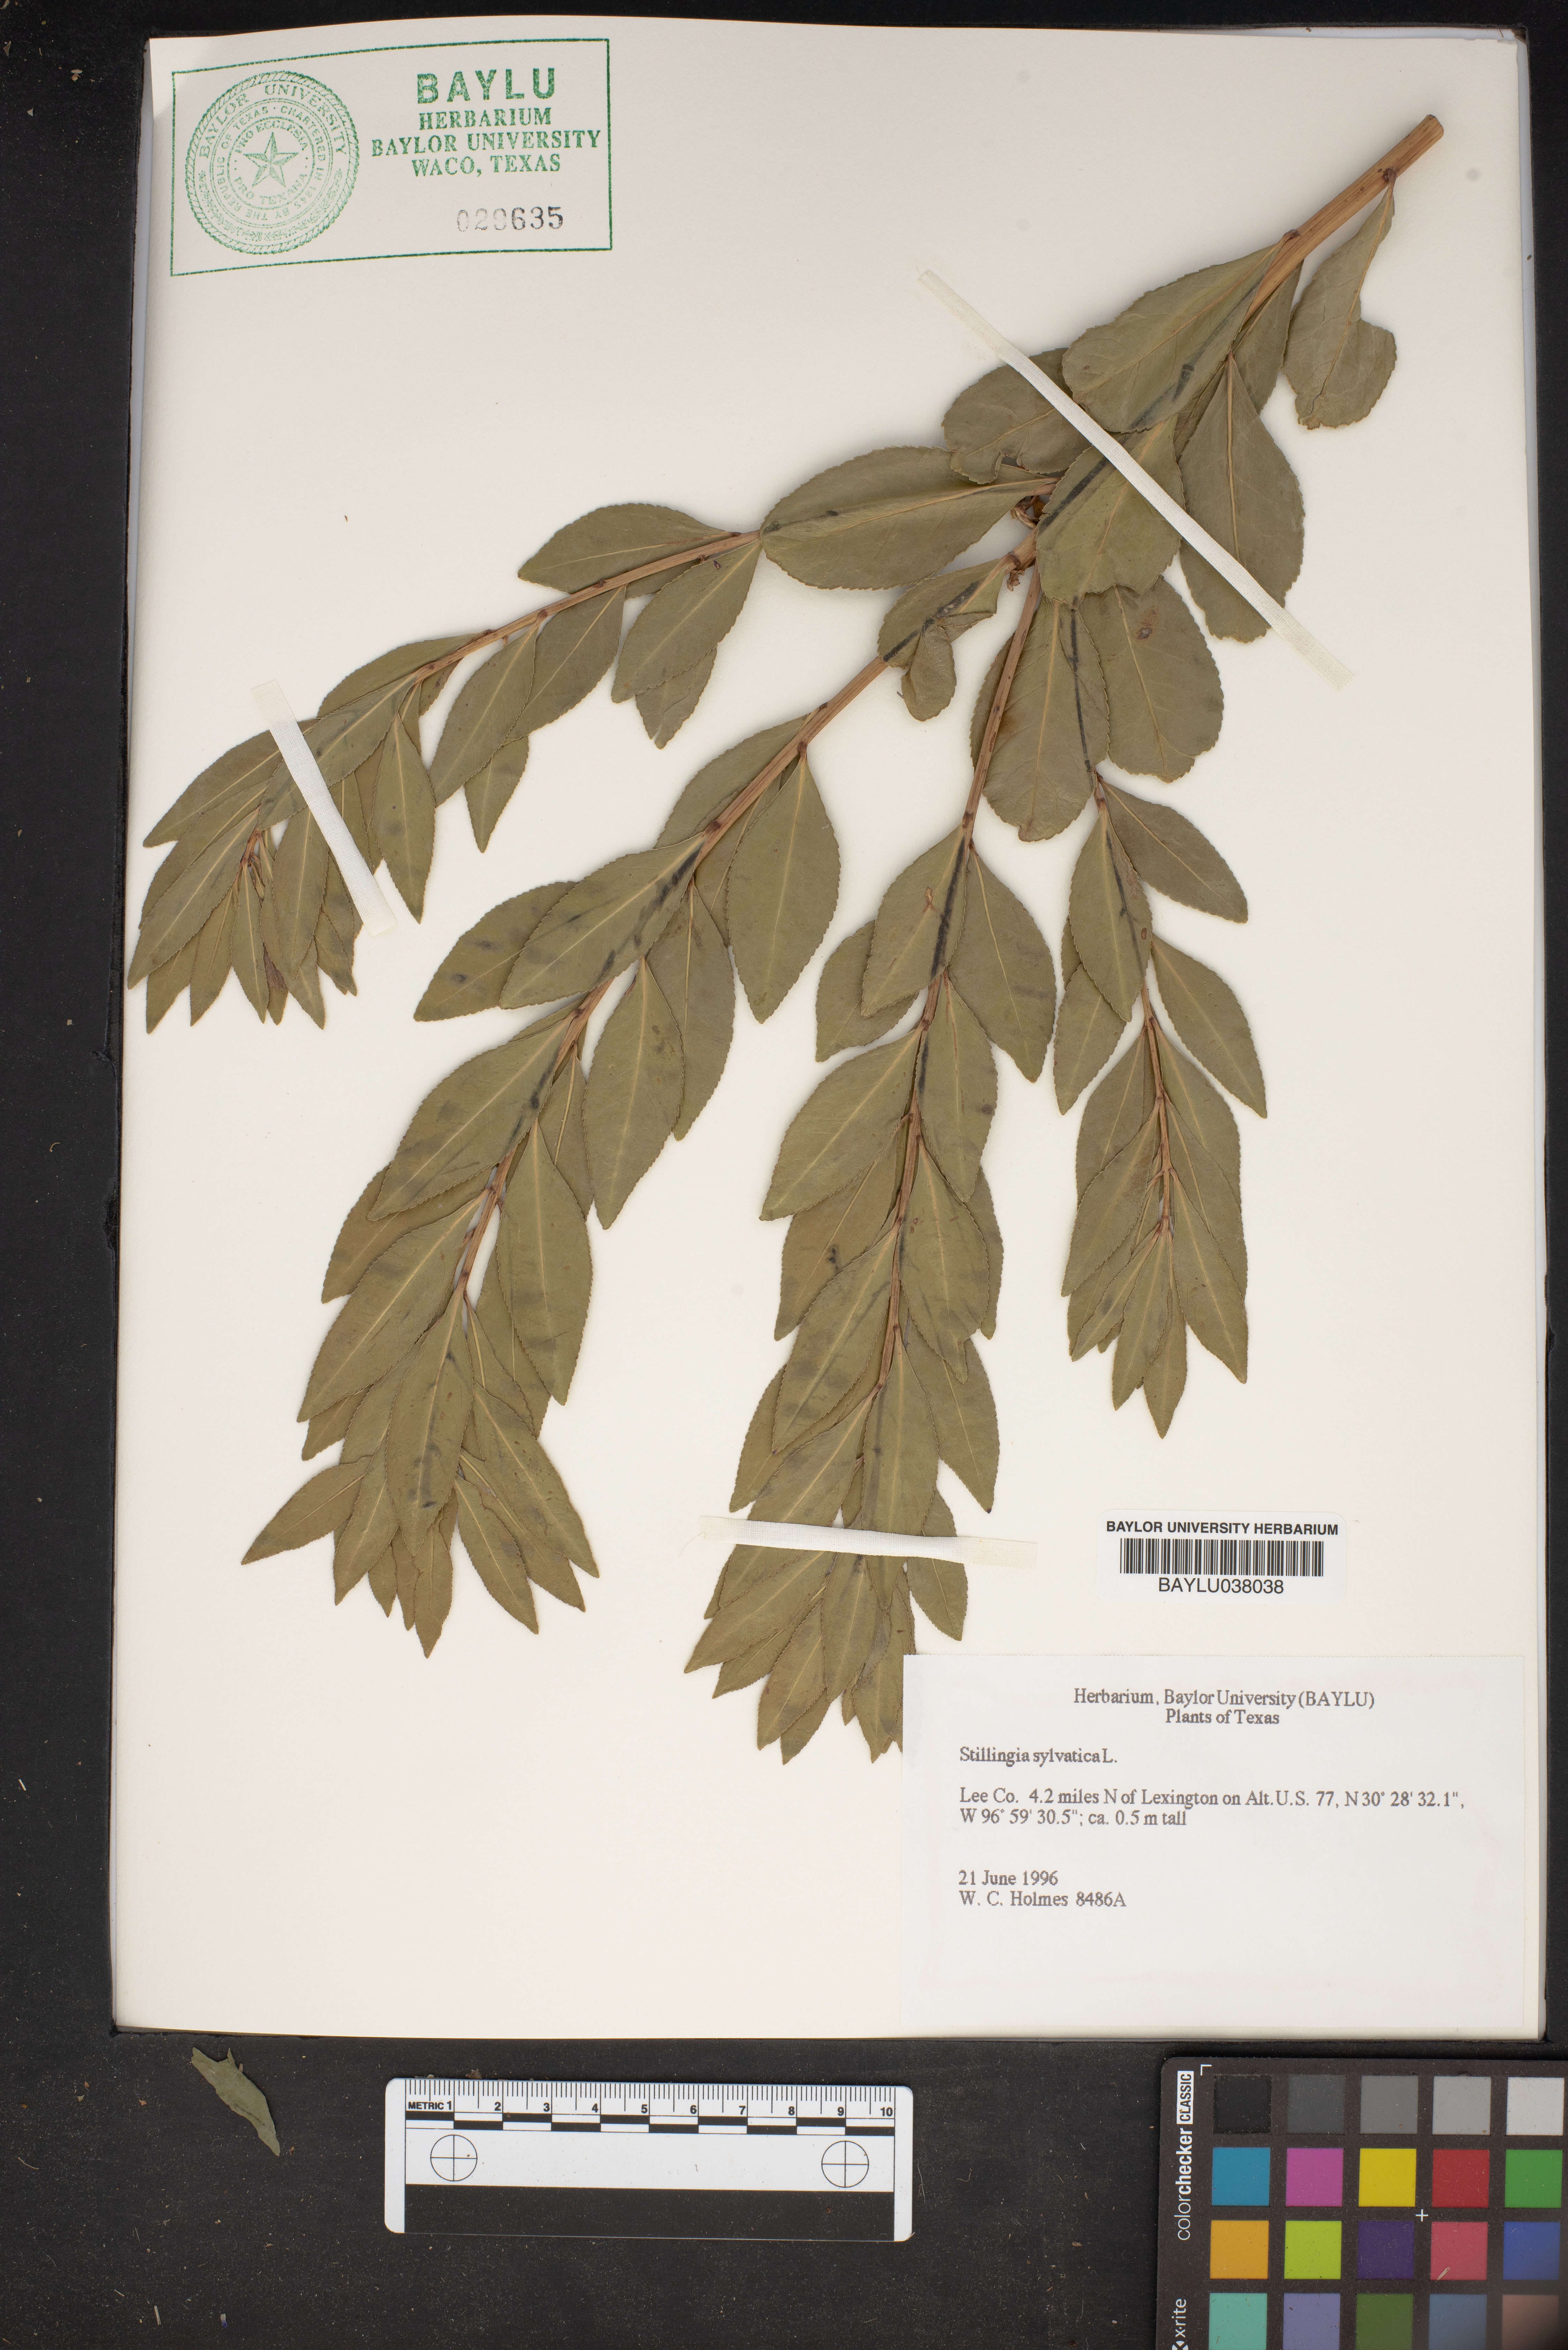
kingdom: Plantae
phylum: Tracheophyta
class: Magnoliopsida
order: Malpighiales
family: Euphorbiaceae
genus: Stillingia
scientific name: Stillingia sylvatica
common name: Queen's-delight
